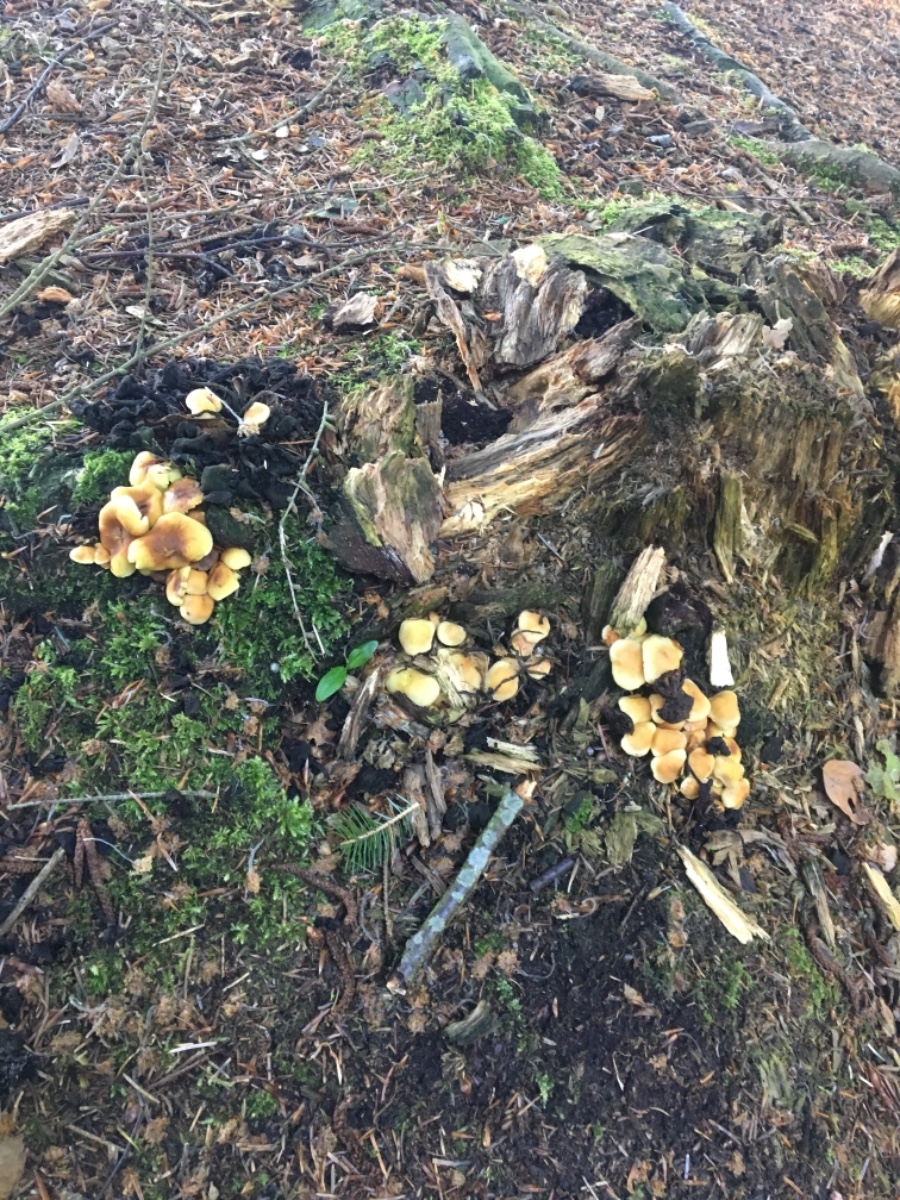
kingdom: Fungi
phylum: Basidiomycota
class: Agaricomycetes
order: Agaricales
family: Strophariaceae
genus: Hypholoma
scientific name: Hypholoma fasciculare
